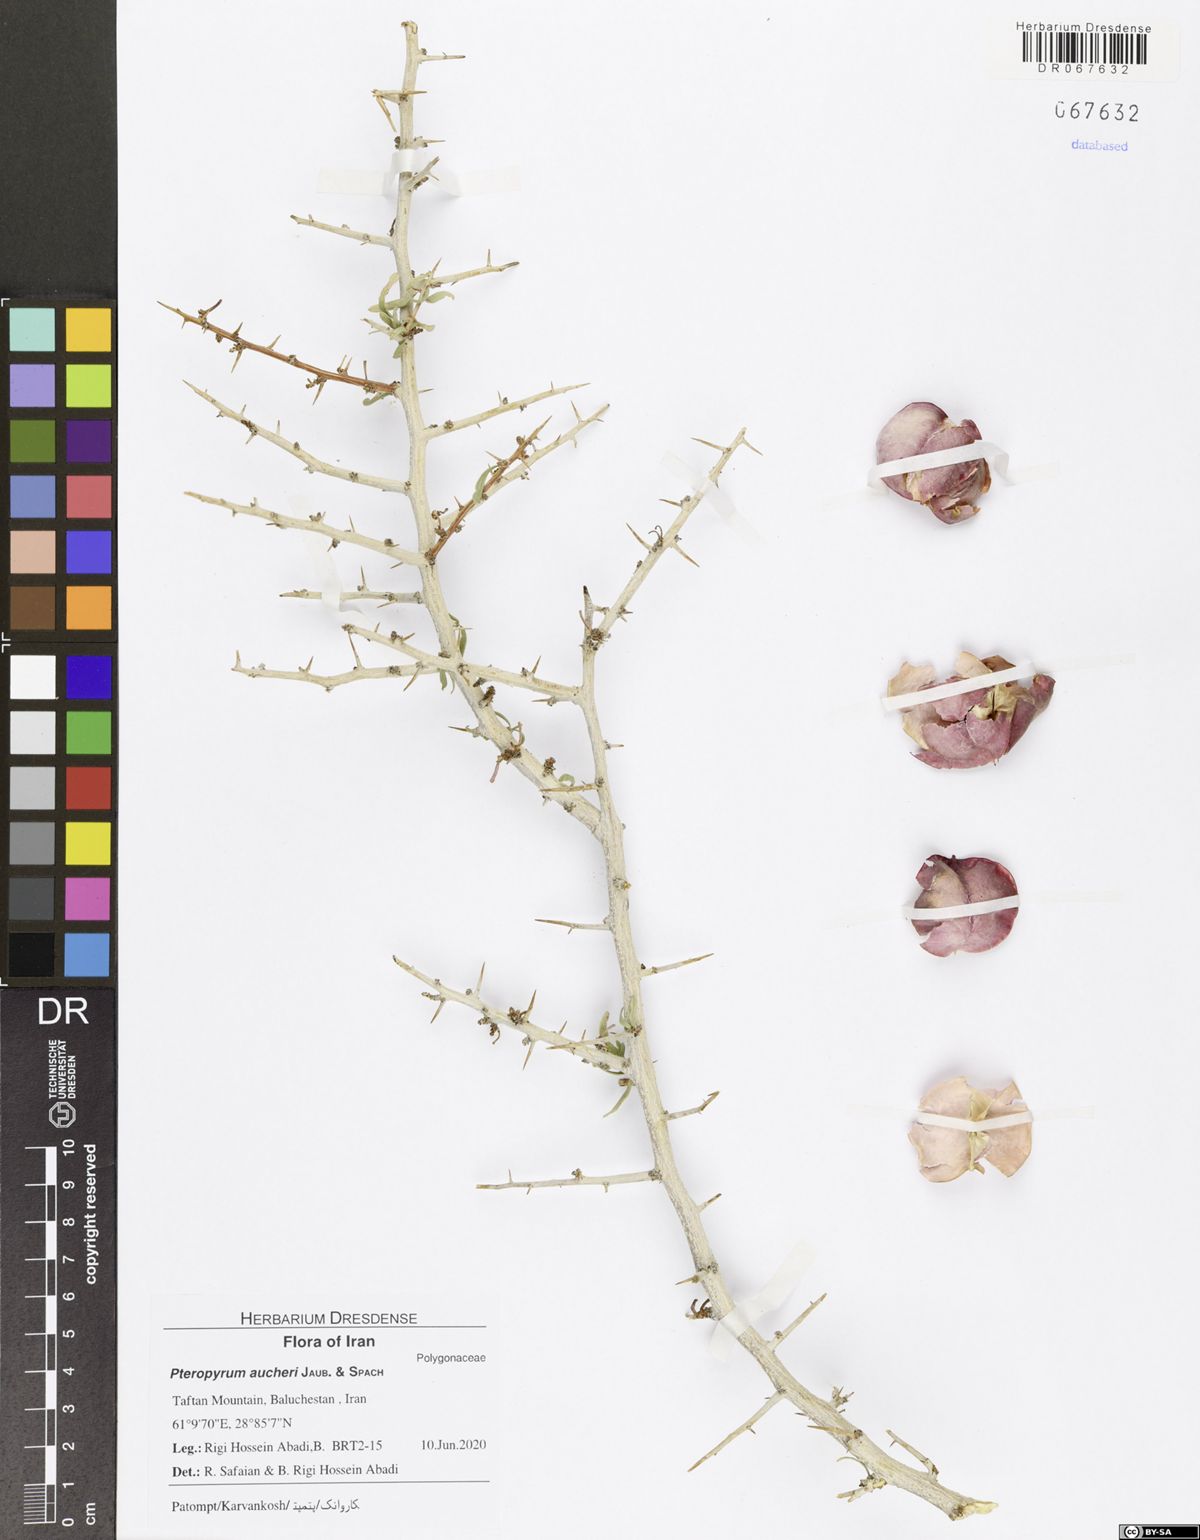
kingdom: Plantae
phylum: Tracheophyta
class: Magnoliopsida
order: Caryophyllales
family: Polygonaceae
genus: Pteropyrum
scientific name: Pteropyrum aucheri
